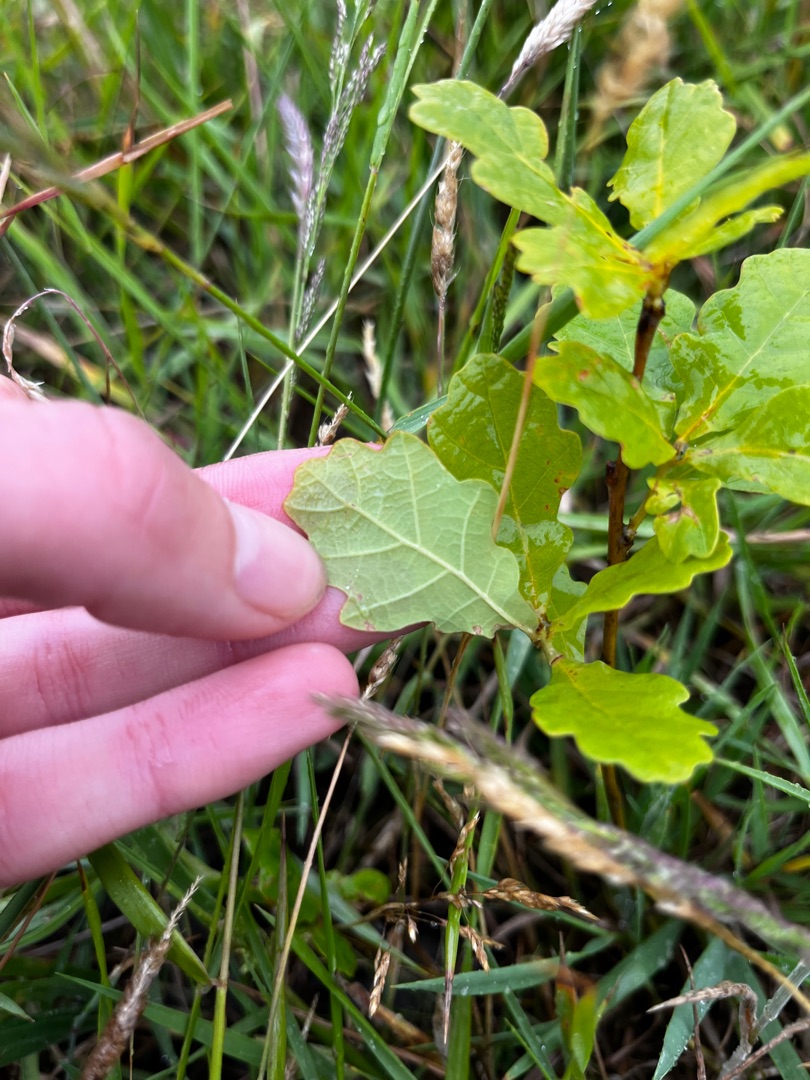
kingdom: Plantae
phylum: Tracheophyta
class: Magnoliopsida
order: Fagales
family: Fagaceae
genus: Quercus
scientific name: Quercus robur
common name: Stilk-eg/almindelig eg
